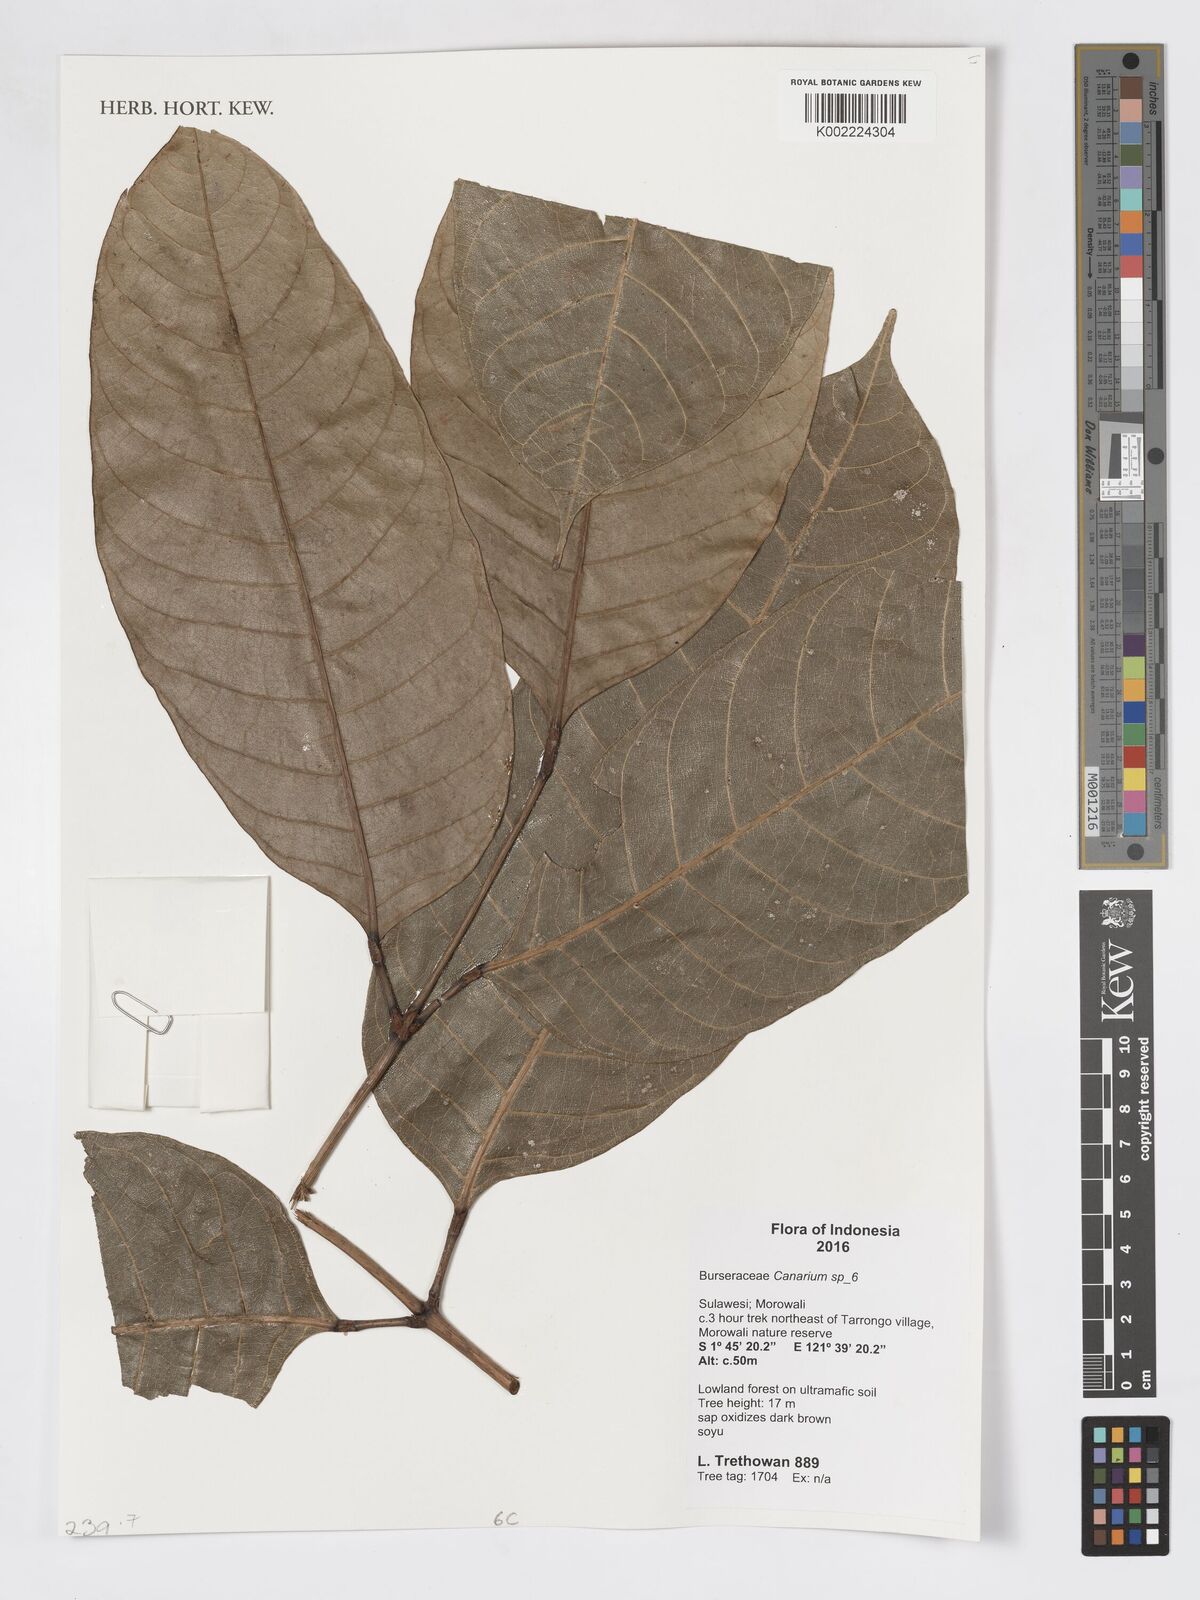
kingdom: Plantae
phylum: Tracheophyta
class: Magnoliopsida
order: Sapindales
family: Burseraceae
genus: Canarium
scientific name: Canarium
